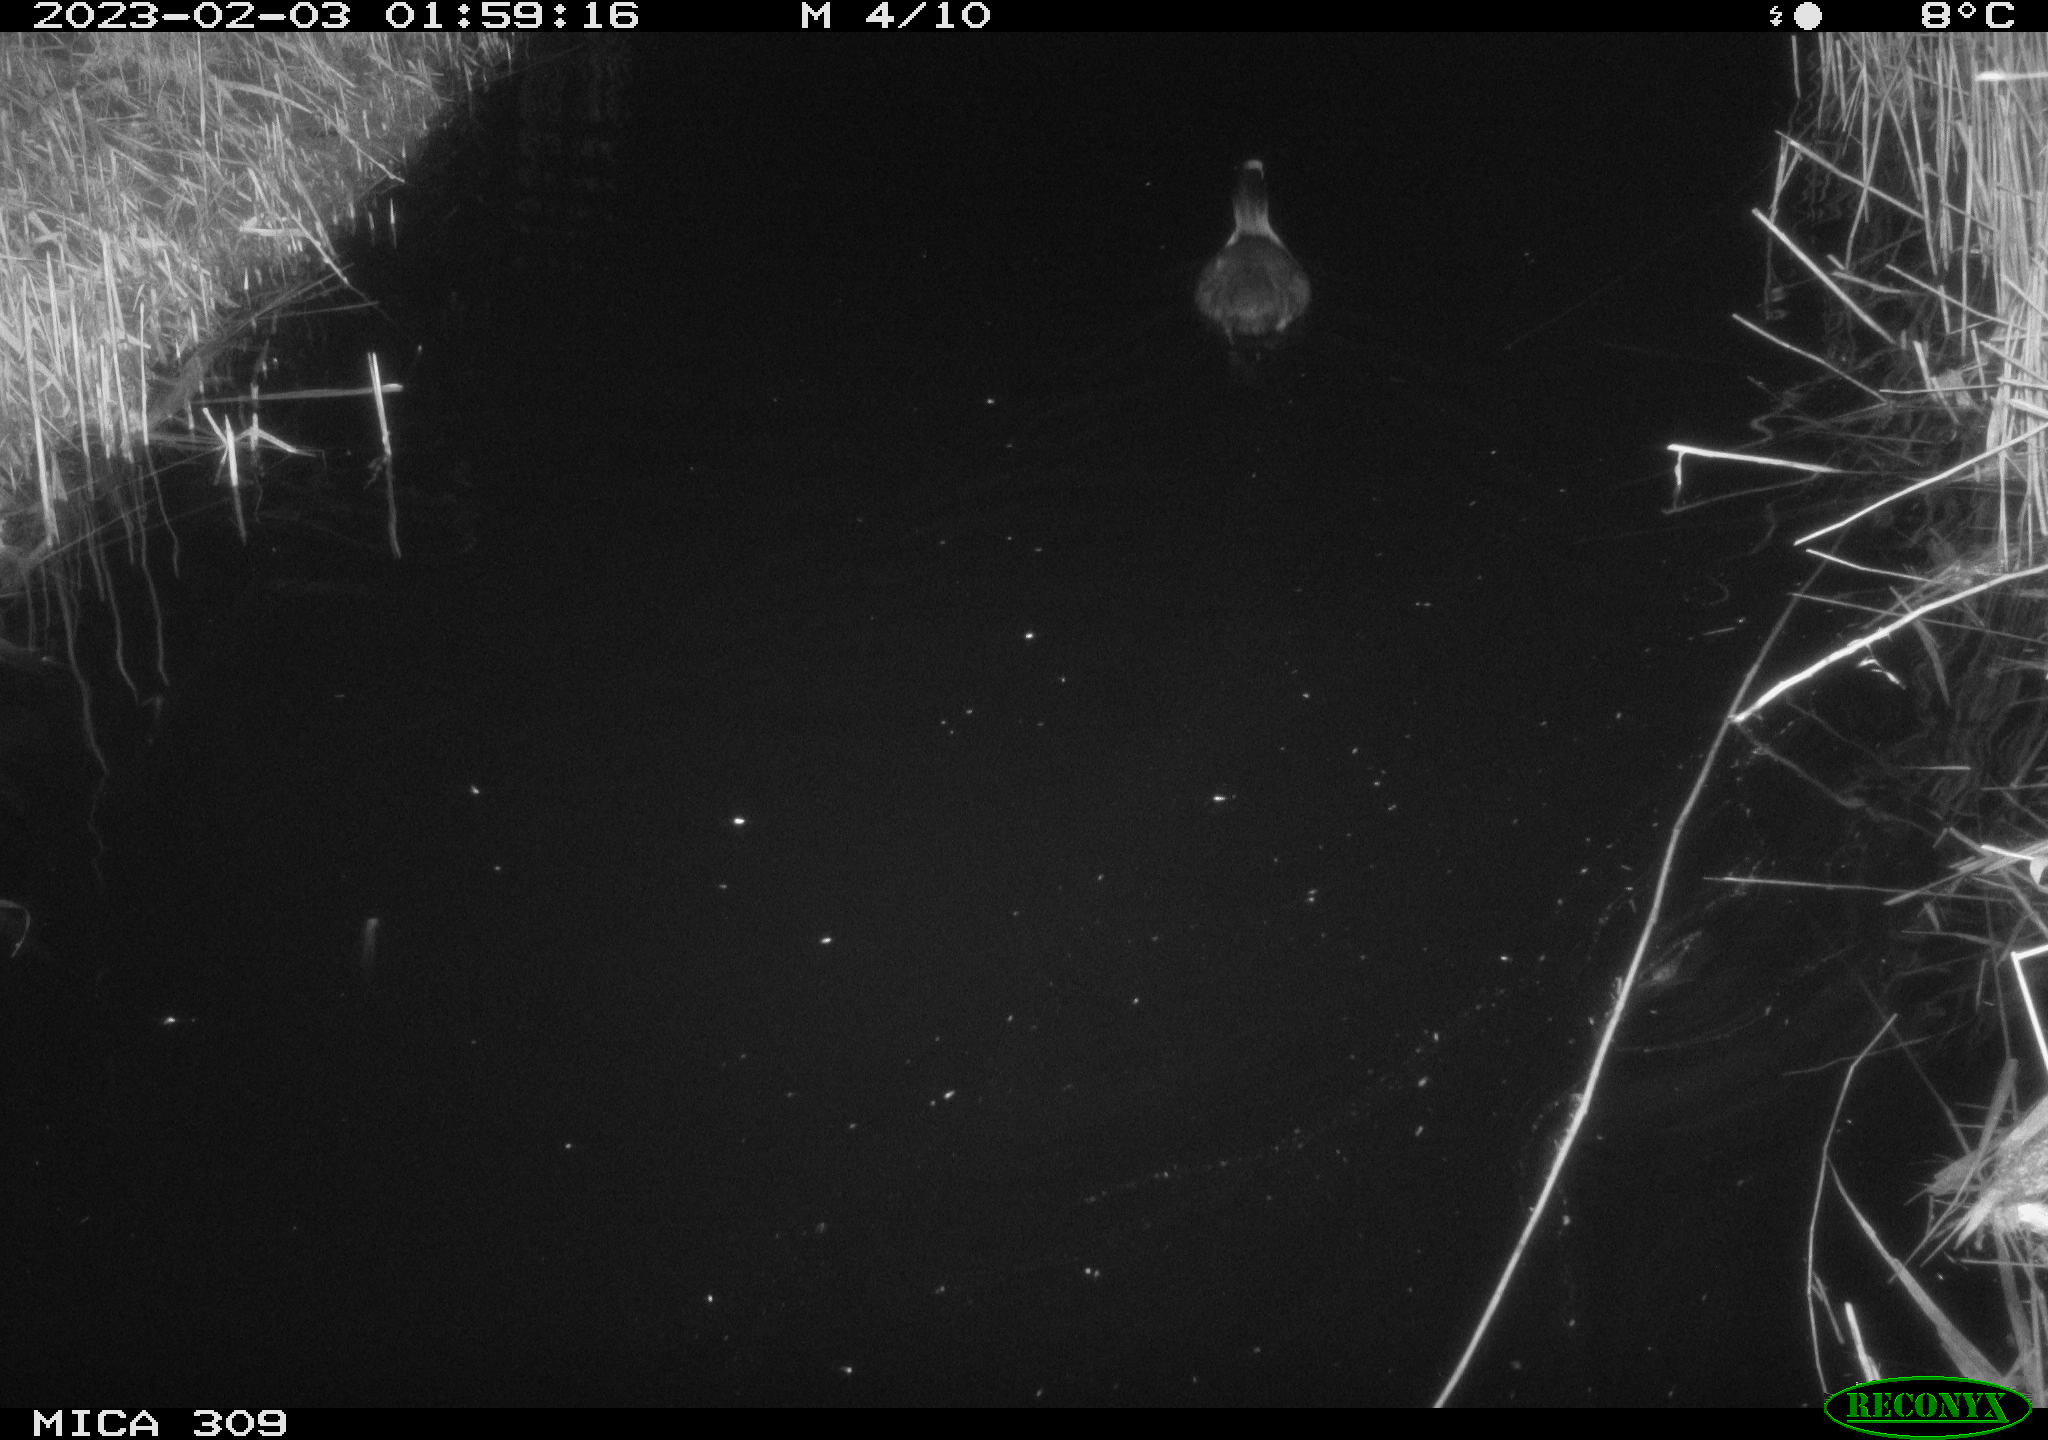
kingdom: Animalia
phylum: Chordata
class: Aves
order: Gruiformes
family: Rallidae
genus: Fulica
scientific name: Fulica atra
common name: Eurasian coot
